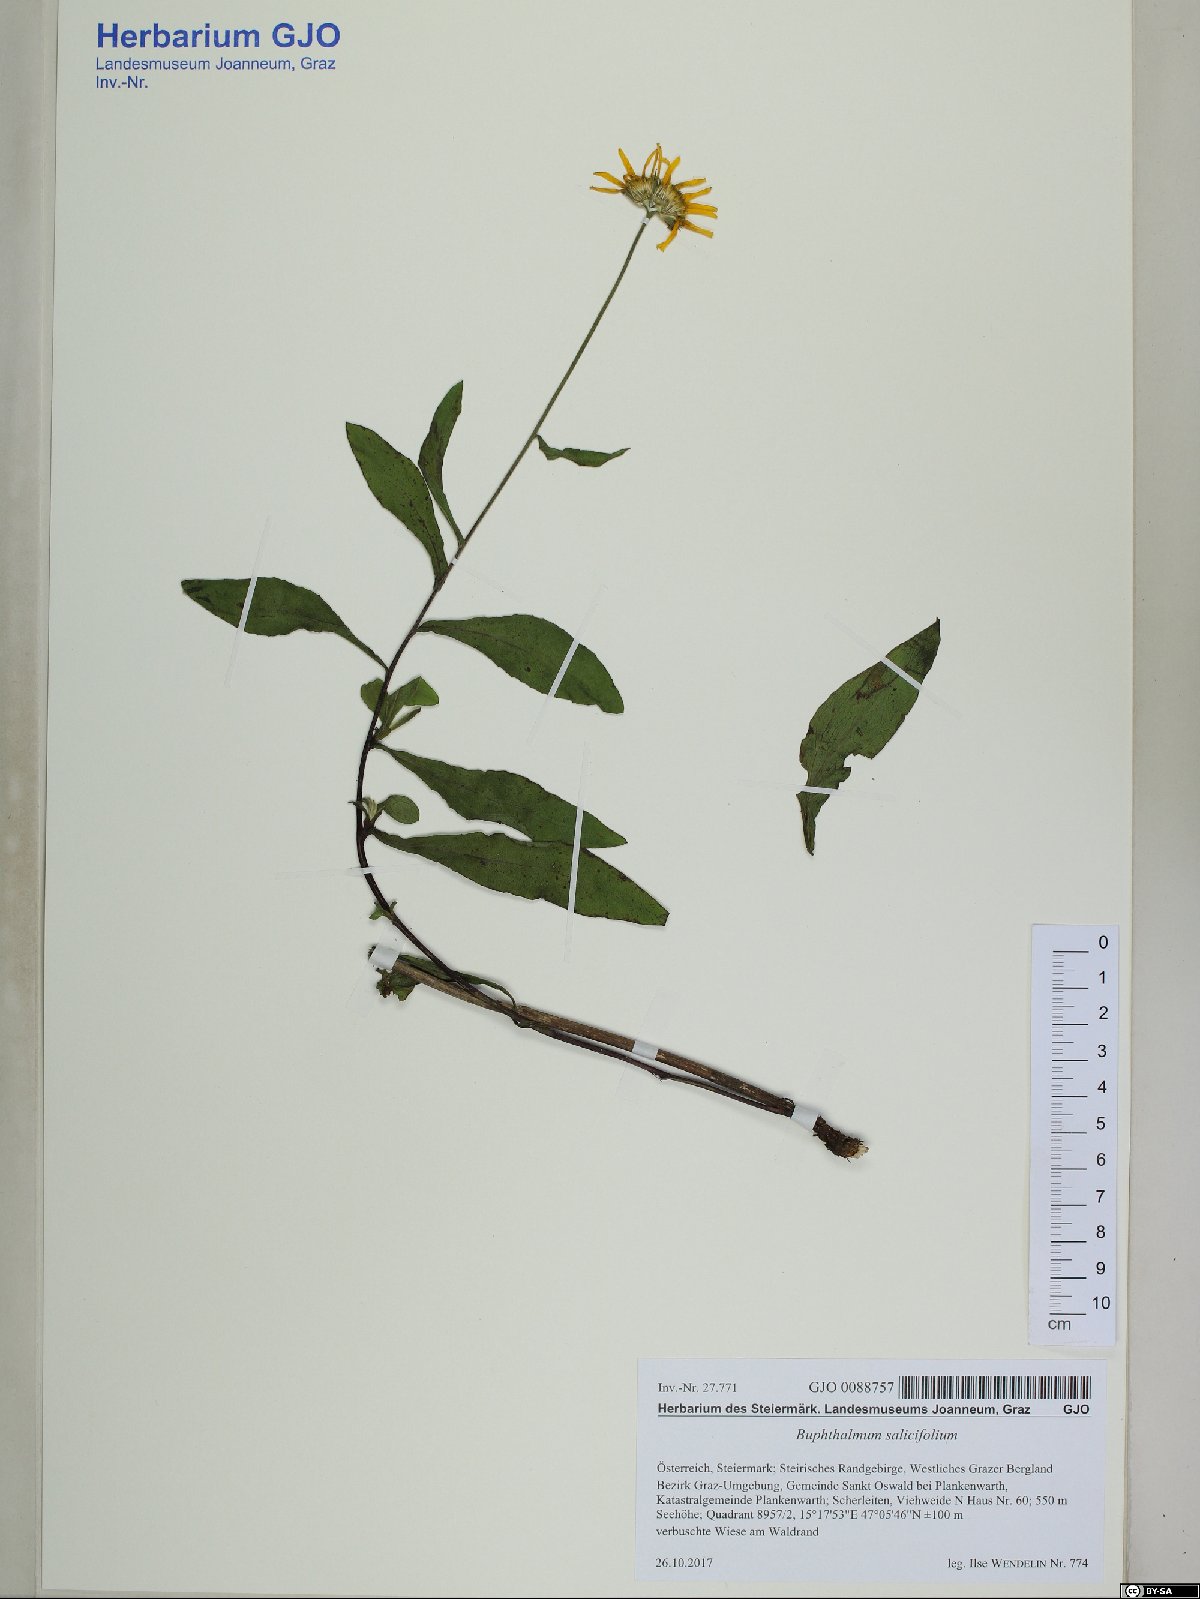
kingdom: Plantae
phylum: Tracheophyta
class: Magnoliopsida
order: Asterales
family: Asteraceae
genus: Buphthalmum
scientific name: Buphthalmum salicifolium
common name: Willow-leaved yellow-oxeye
